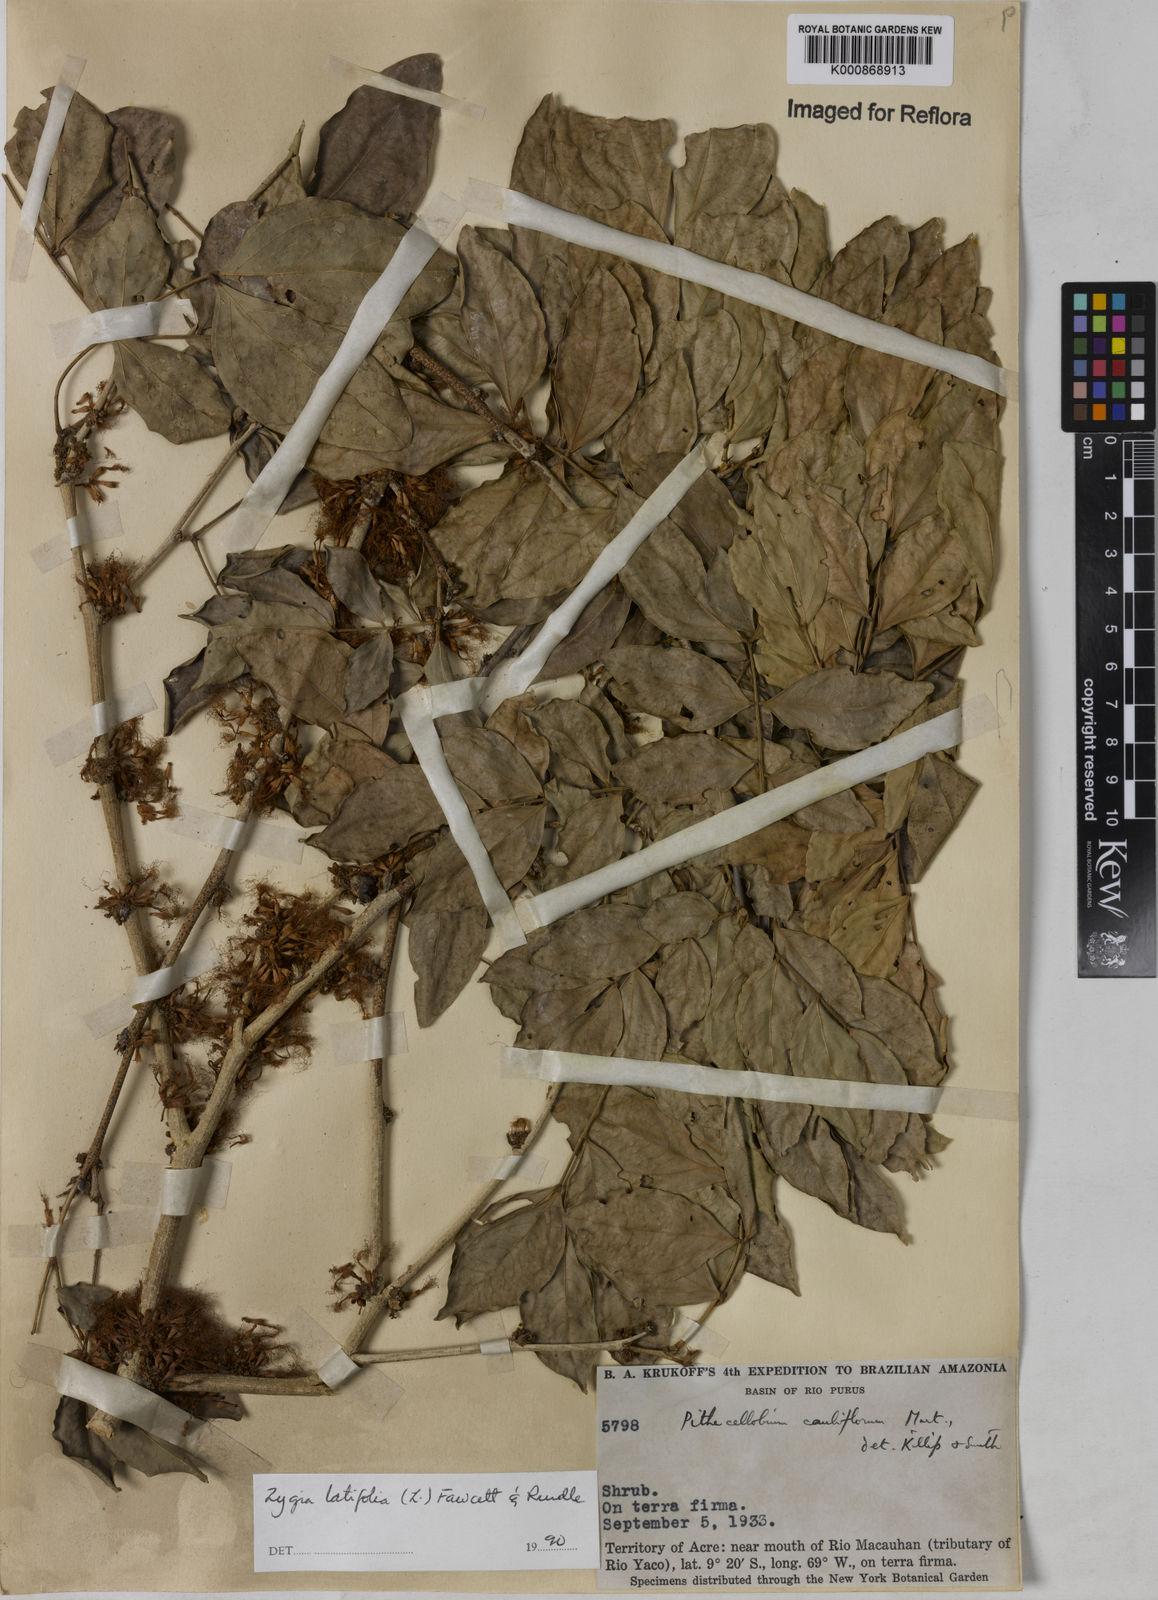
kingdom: Plantae
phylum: Tracheophyta
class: Magnoliopsida
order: Fabales
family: Fabaceae
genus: Zygia
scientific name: Zygia latifolia
